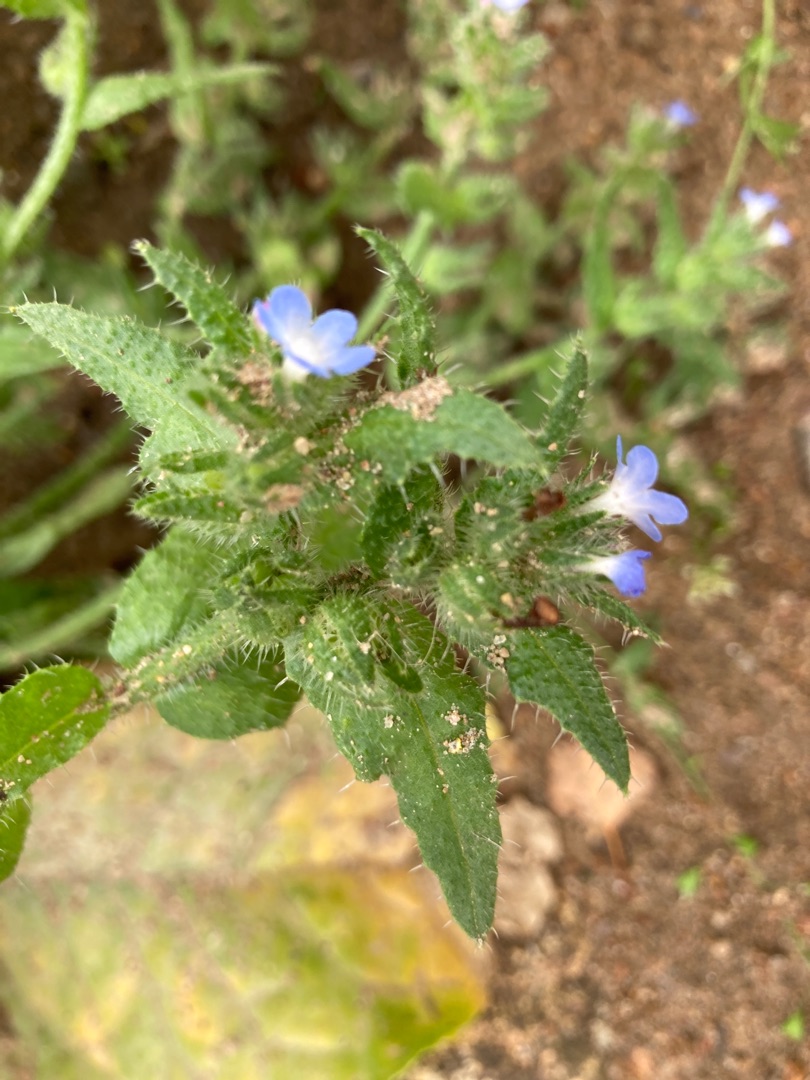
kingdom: Plantae
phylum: Tracheophyta
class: Magnoliopsida
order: Boraginales
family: Boraginaceae
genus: Lycopsis
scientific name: Lycopsis arvensis
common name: Krumhals
